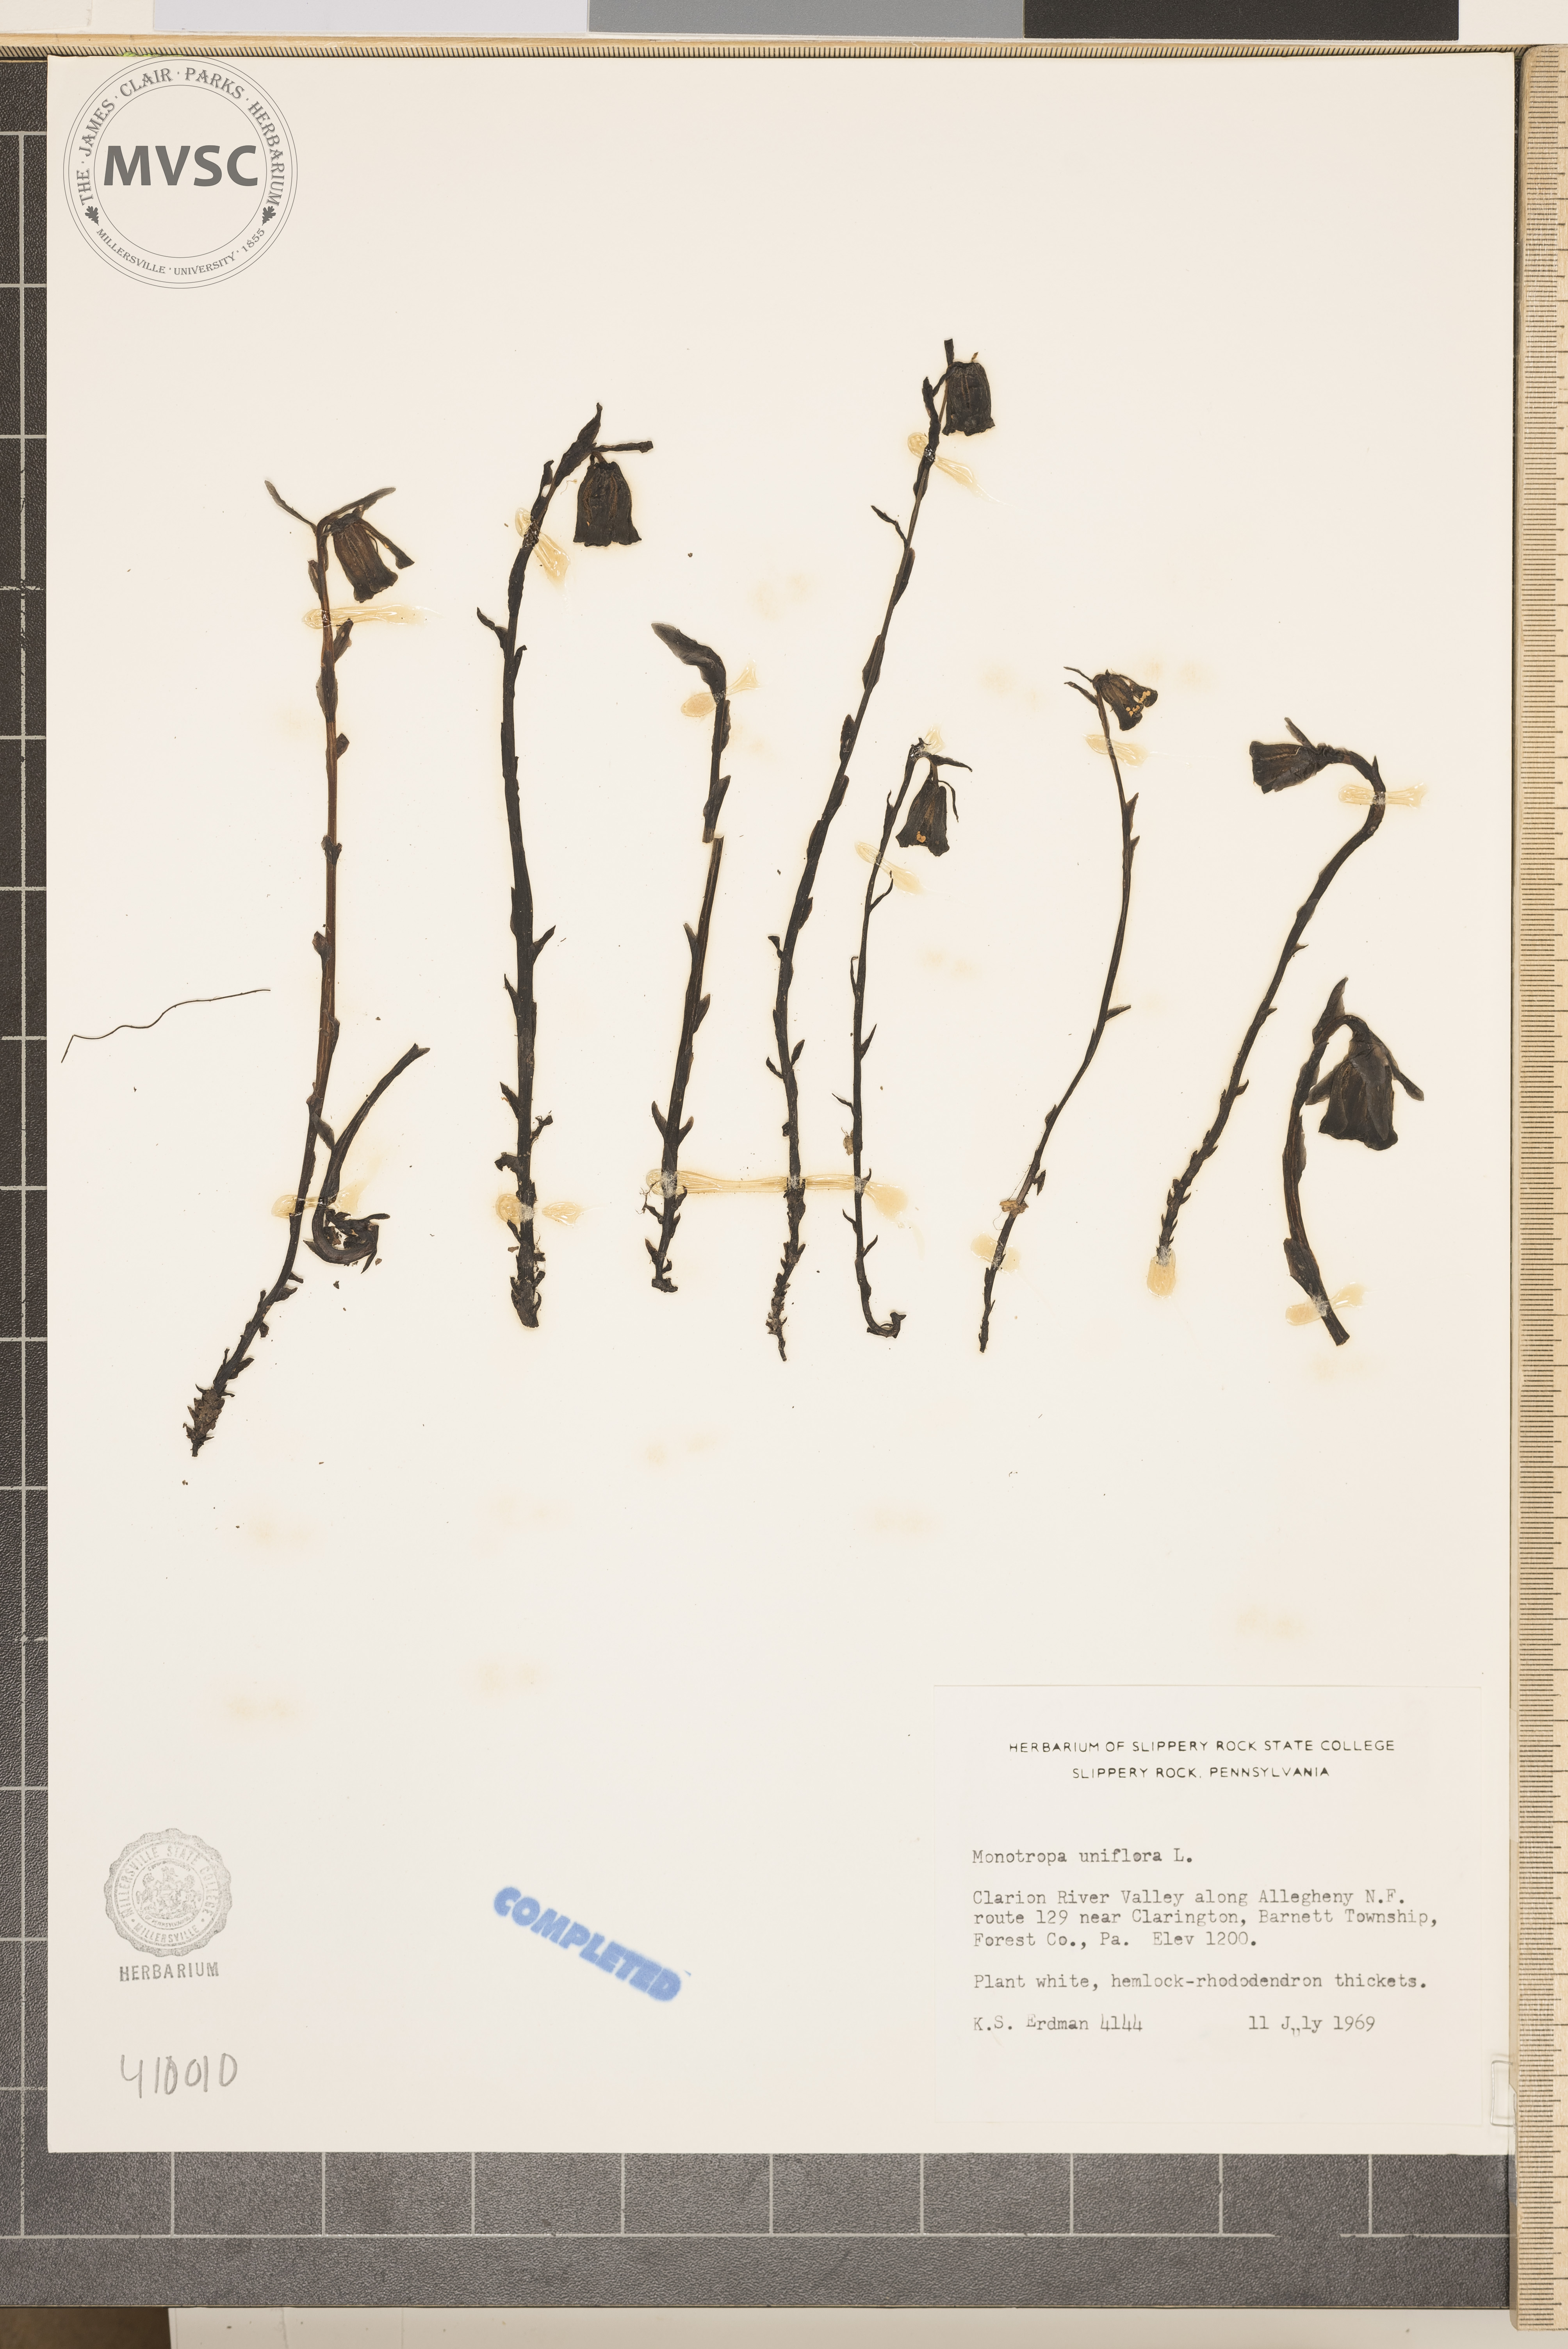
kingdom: Plantae
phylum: Tracheophyta
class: Magnoliopsida
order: Ericales
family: Ericaceae
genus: Monotropa
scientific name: Monotropa uniflora
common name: Convulsion root
